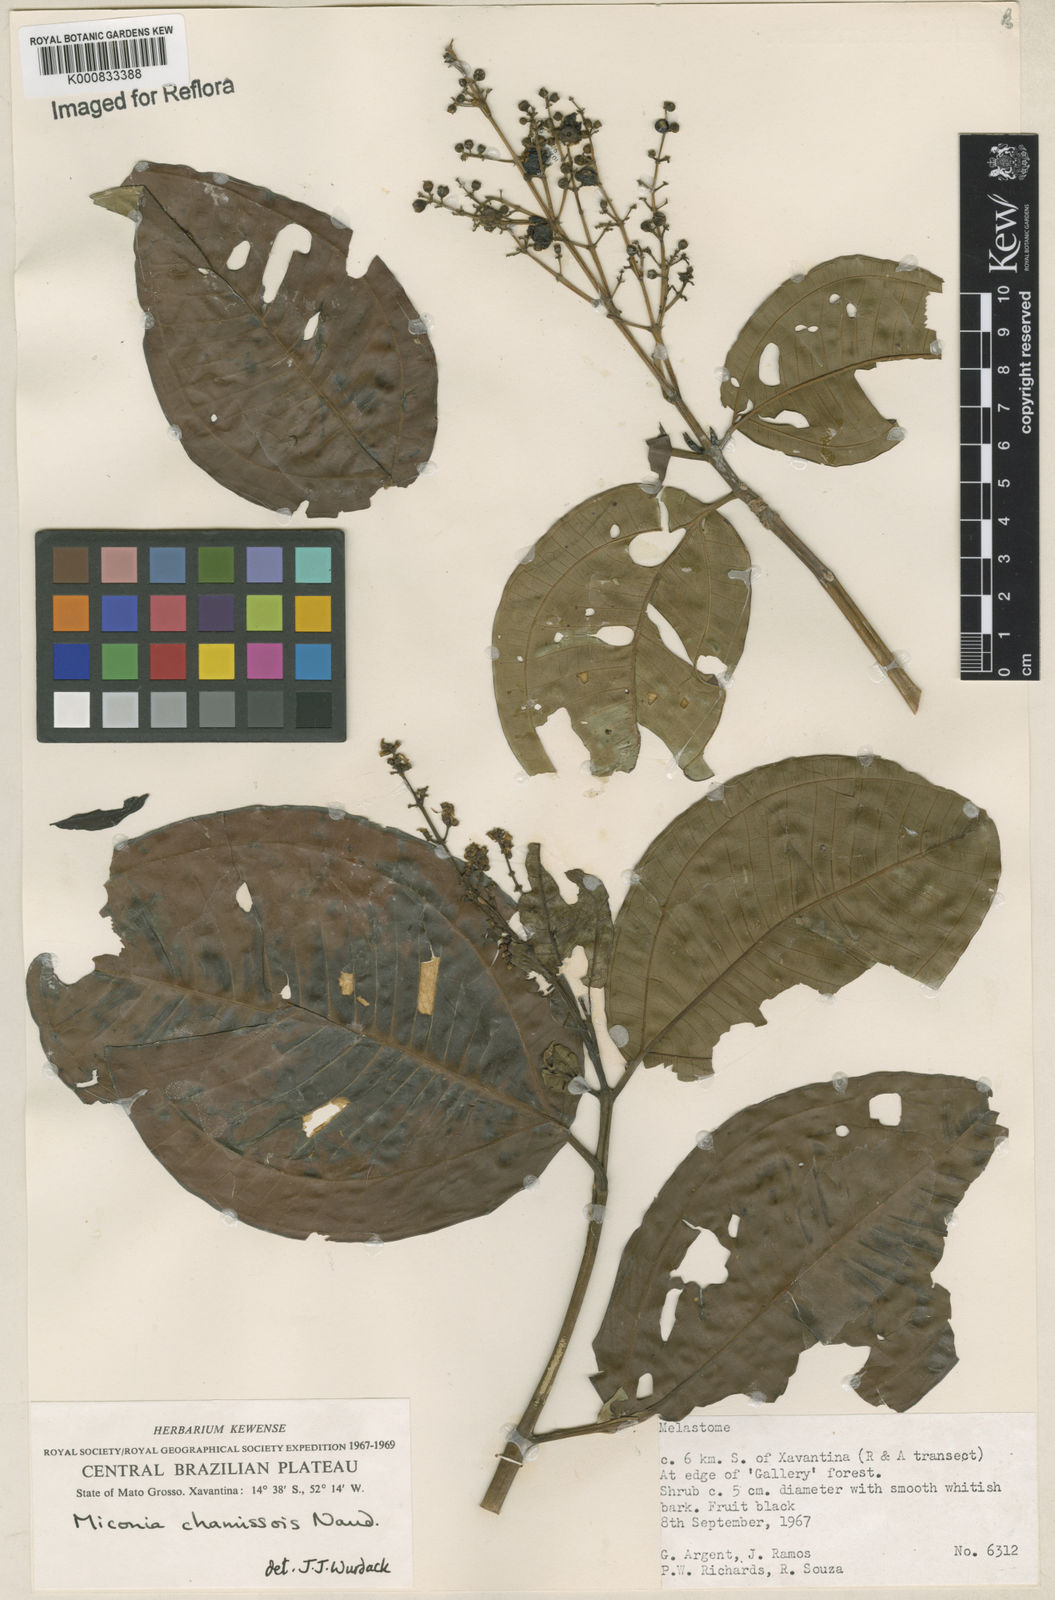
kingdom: Plantae
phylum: Tracheophyta
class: Magnoliopsida
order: Myrtales
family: Melastomataceae
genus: Miconia
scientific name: Miconia chamissois
